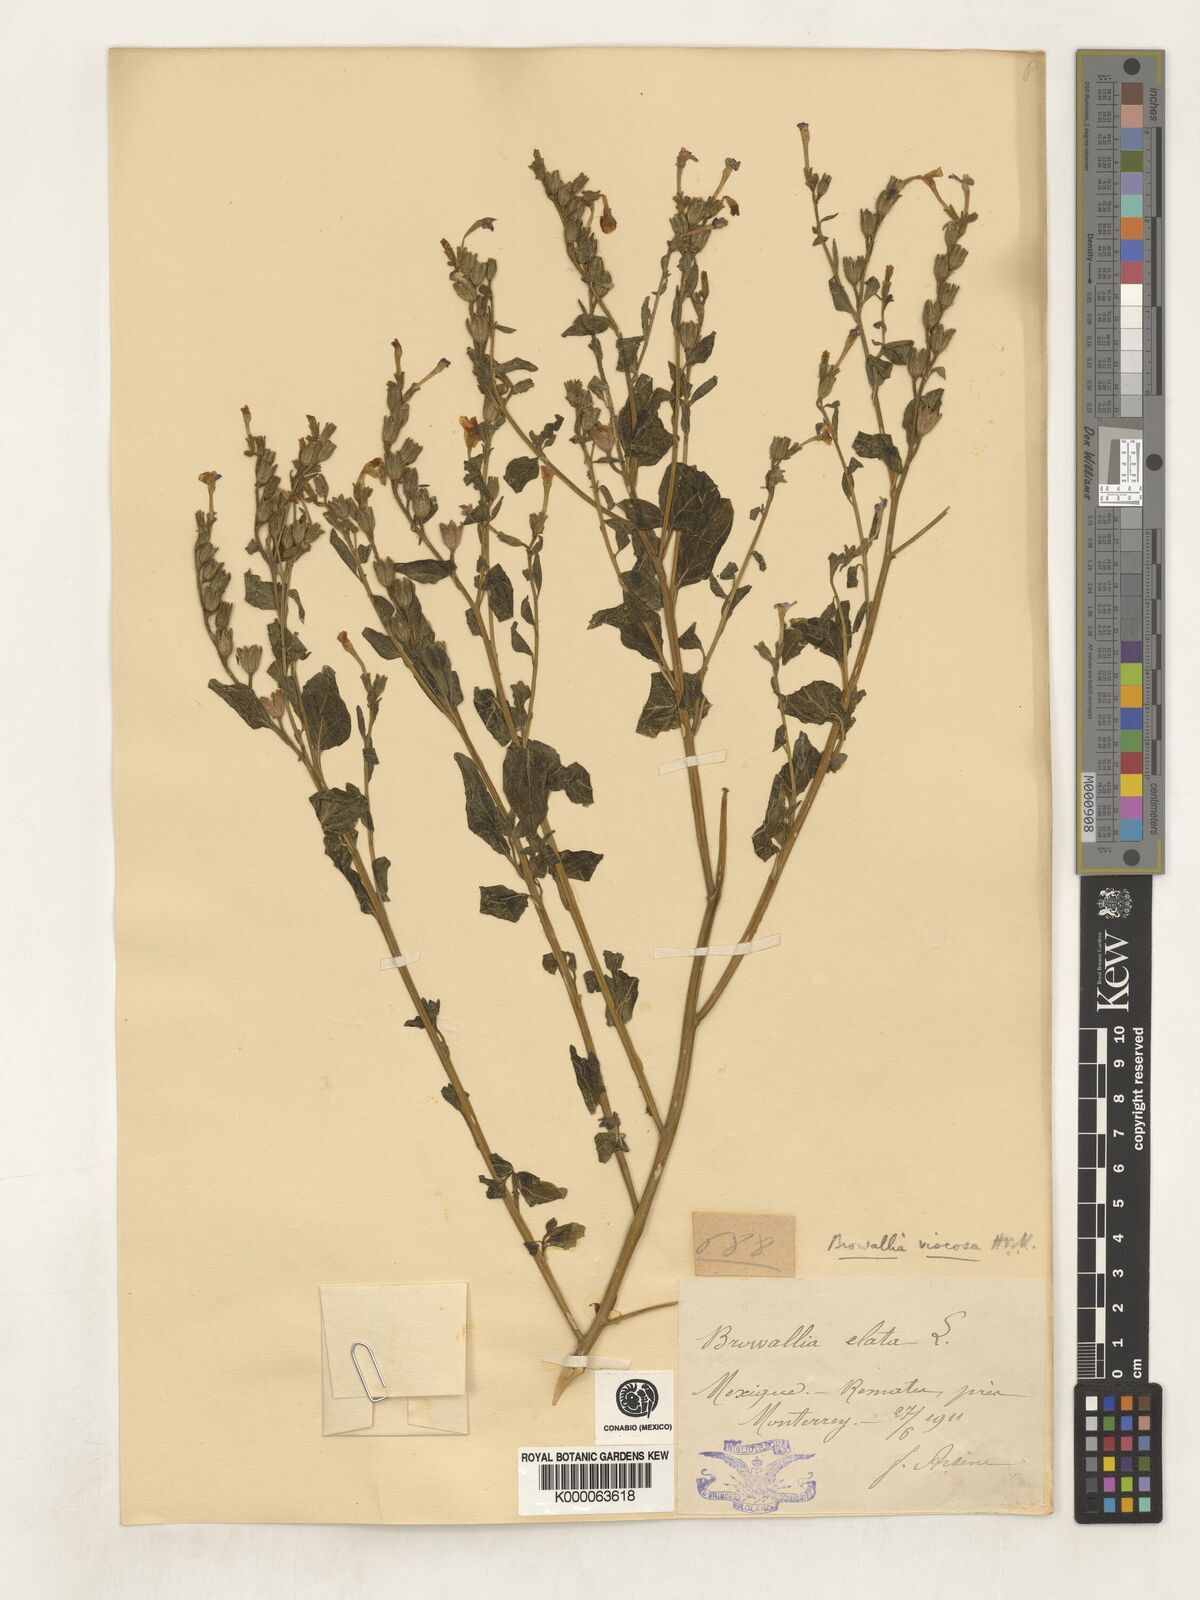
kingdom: Plantae
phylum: Tracheophyta
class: Magnoliopsida
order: Solanales
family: Solanaceae
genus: Browallia
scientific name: Browallia americana
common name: Jamaican forget-me-not
